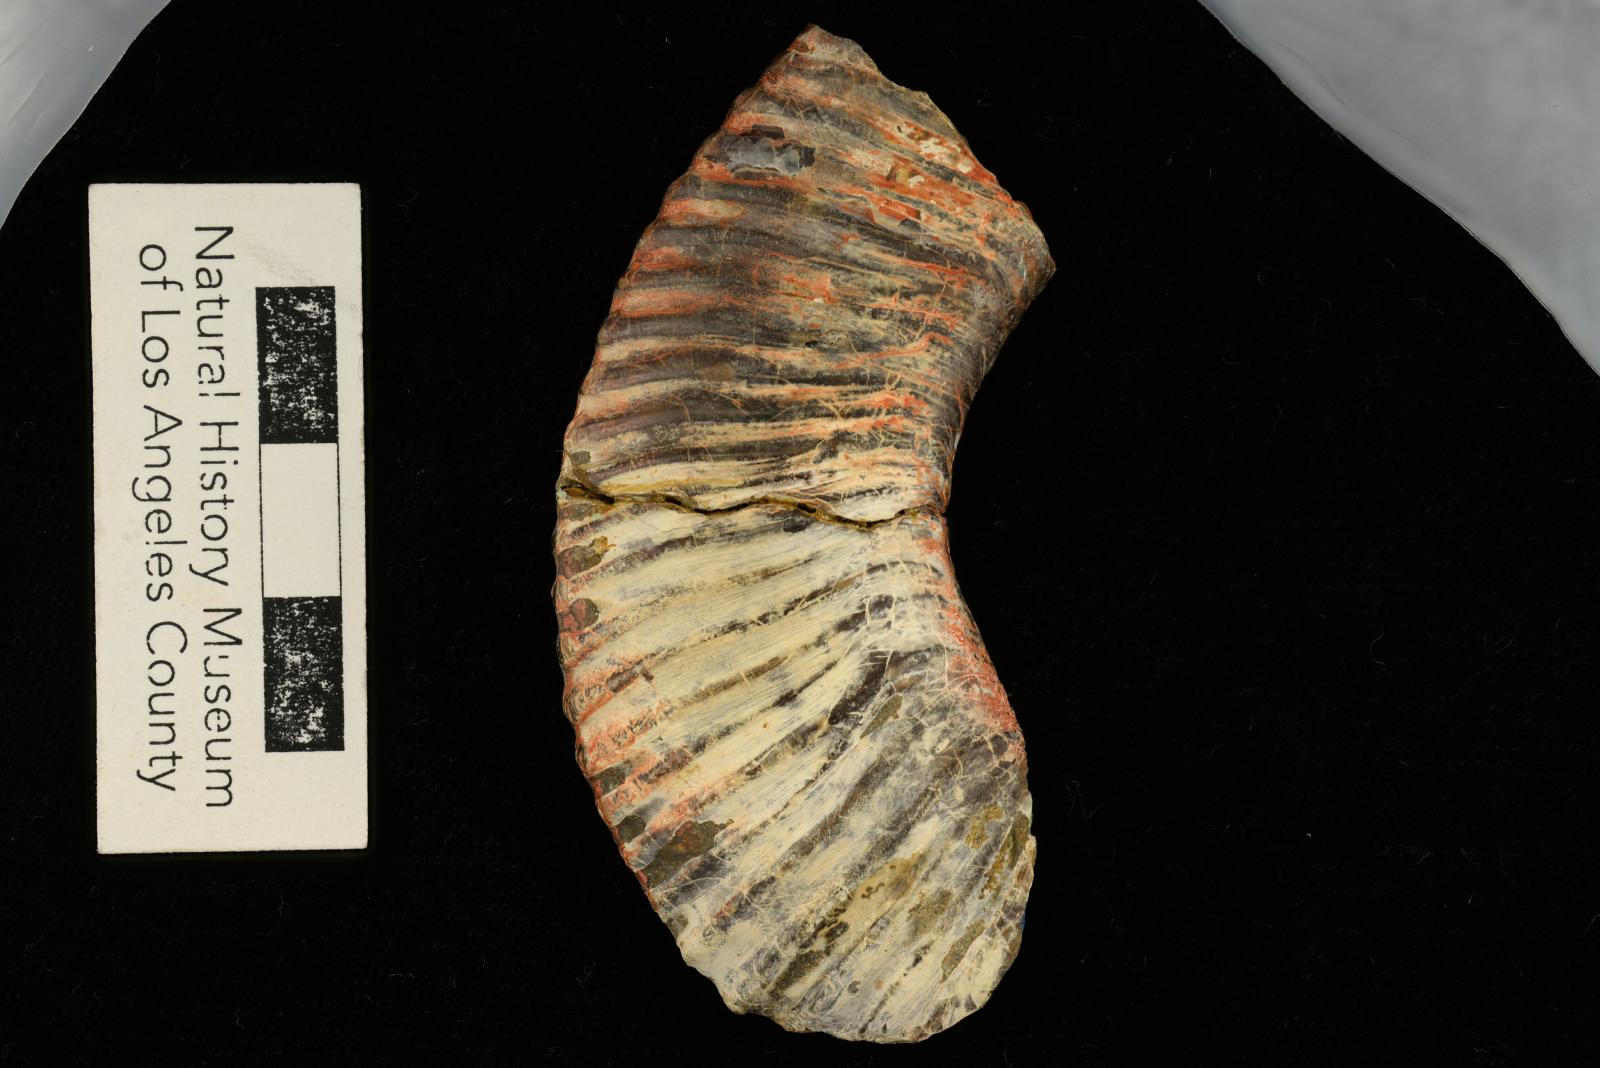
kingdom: Animalia
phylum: Mollusca
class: Cephalopoda
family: Megacrioceratidae
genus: Shasticrioceras
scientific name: Shasticrioceras whitneyi
